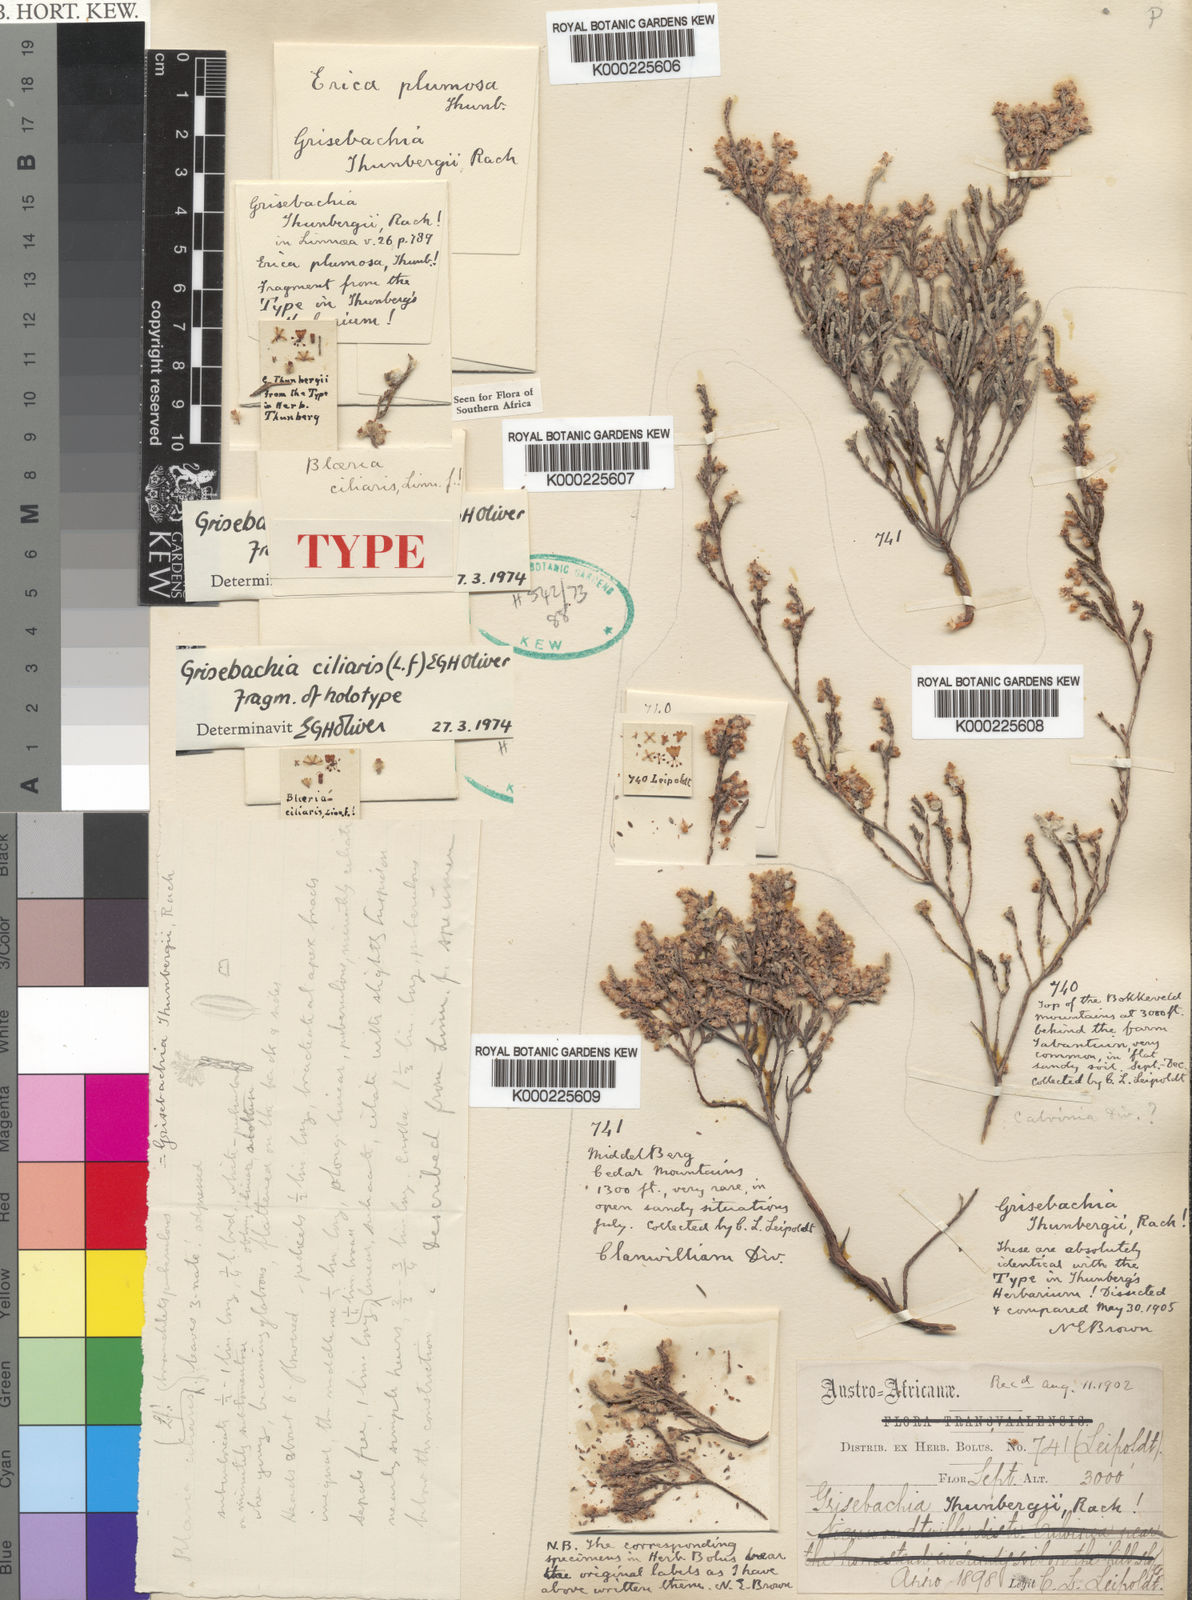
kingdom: Plantae
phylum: Tracheophyta
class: Magnoliopsida
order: Ericales
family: Ericaceae
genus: Erica
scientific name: Erica plumosa
